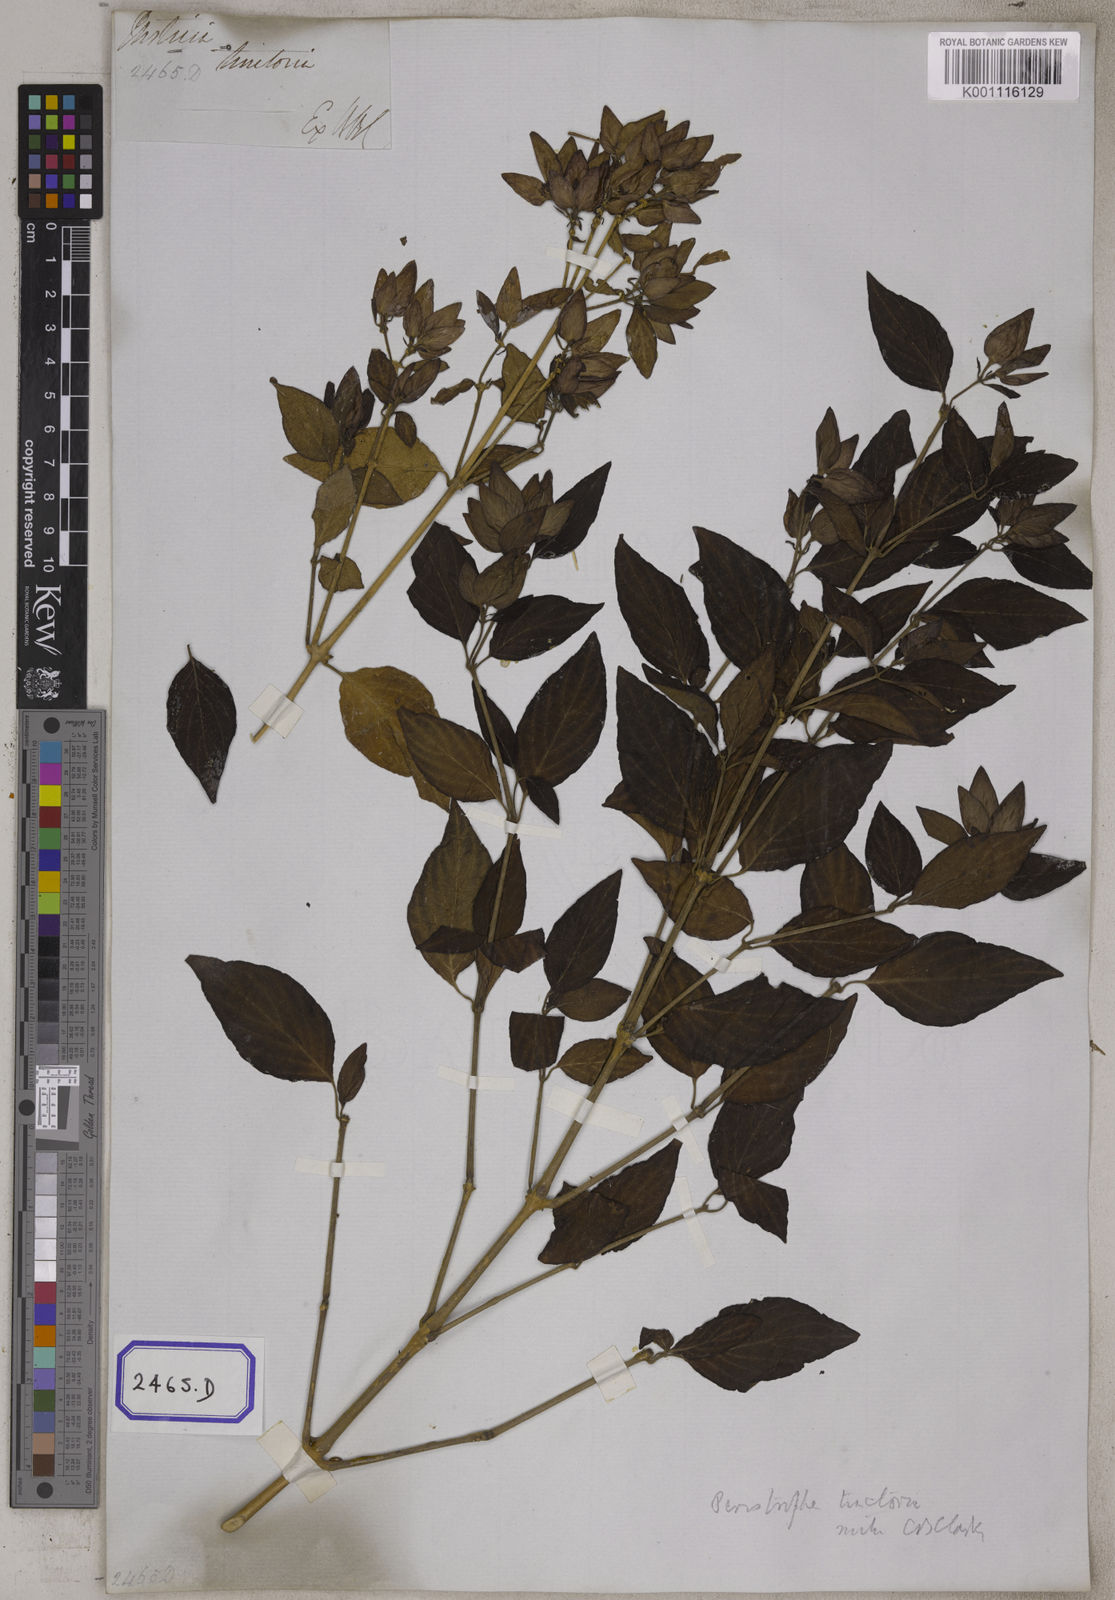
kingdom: Plantae
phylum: Tracheophyta
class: Magnoliopsida
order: Lamiales
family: Acanthaceae
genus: Dicliptera
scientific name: Dicliptera tinctoria
